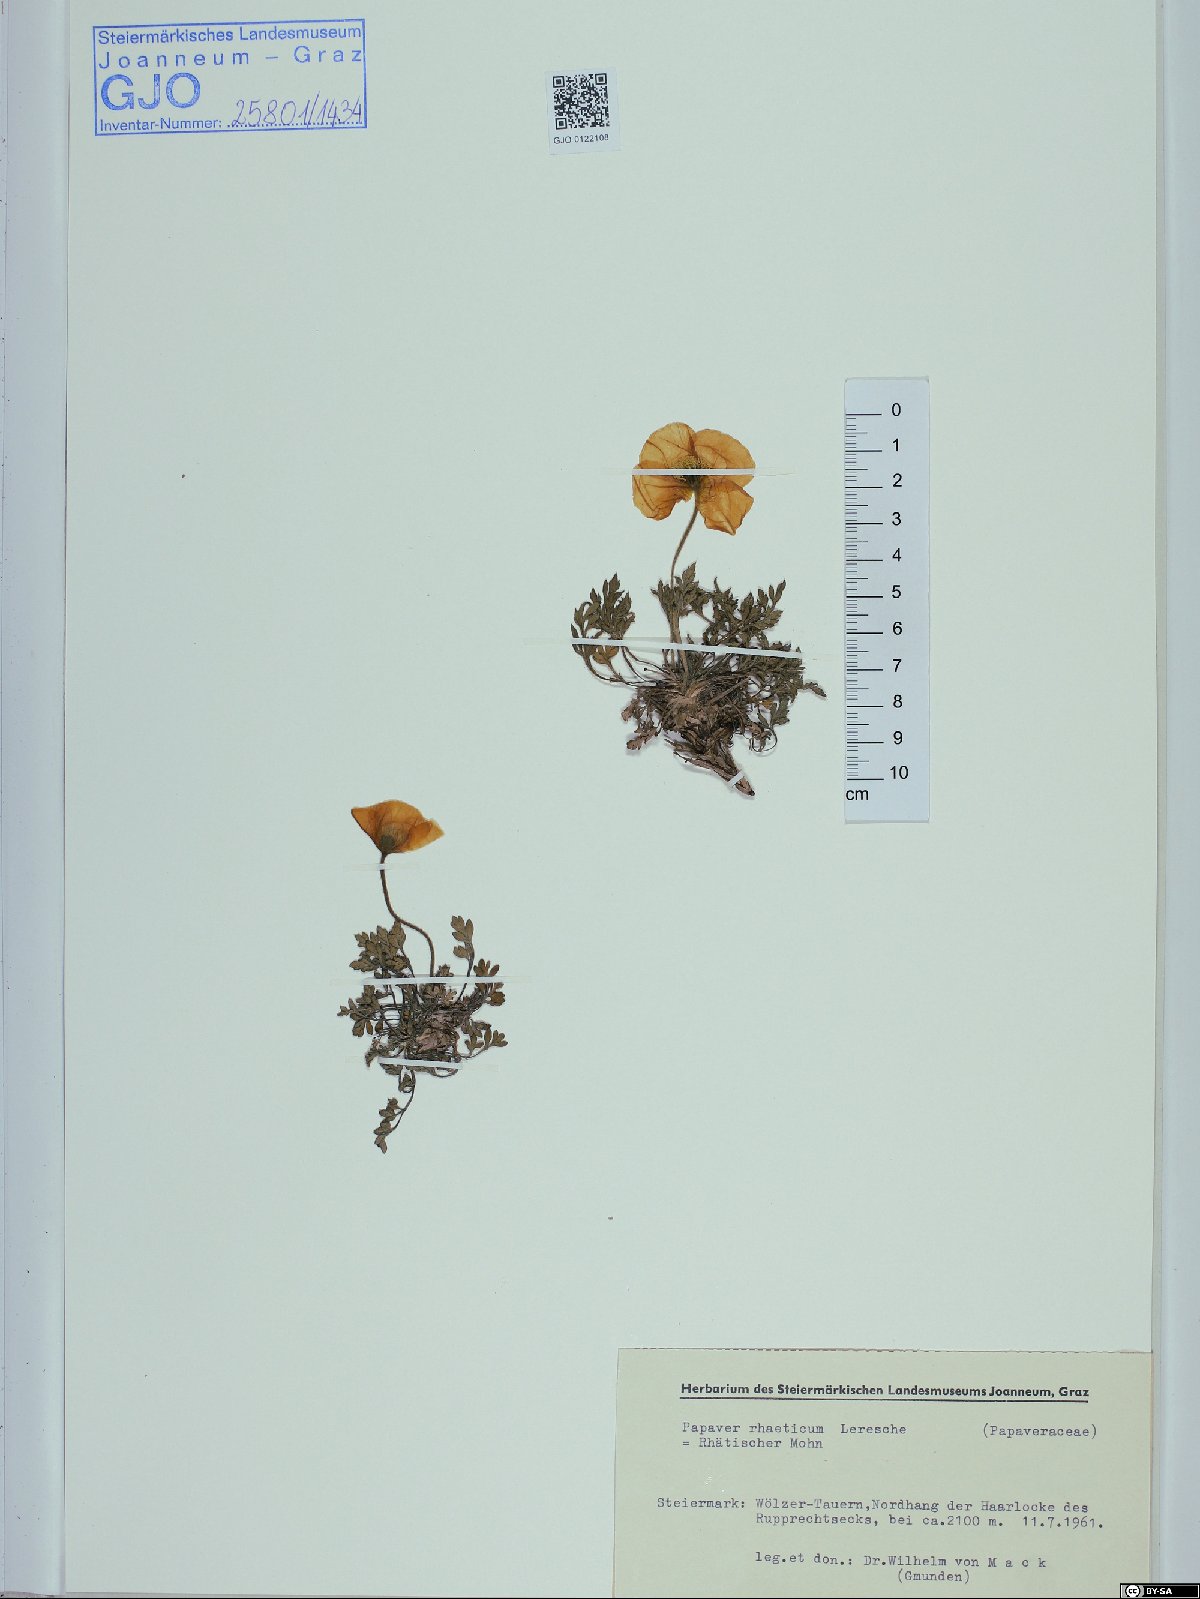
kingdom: Plantae
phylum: Tracheophyta
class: Magnoliopsida
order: Ranunculales
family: Papaveraceae
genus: Papaver
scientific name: Papaver alpinum
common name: Austrian poppy
